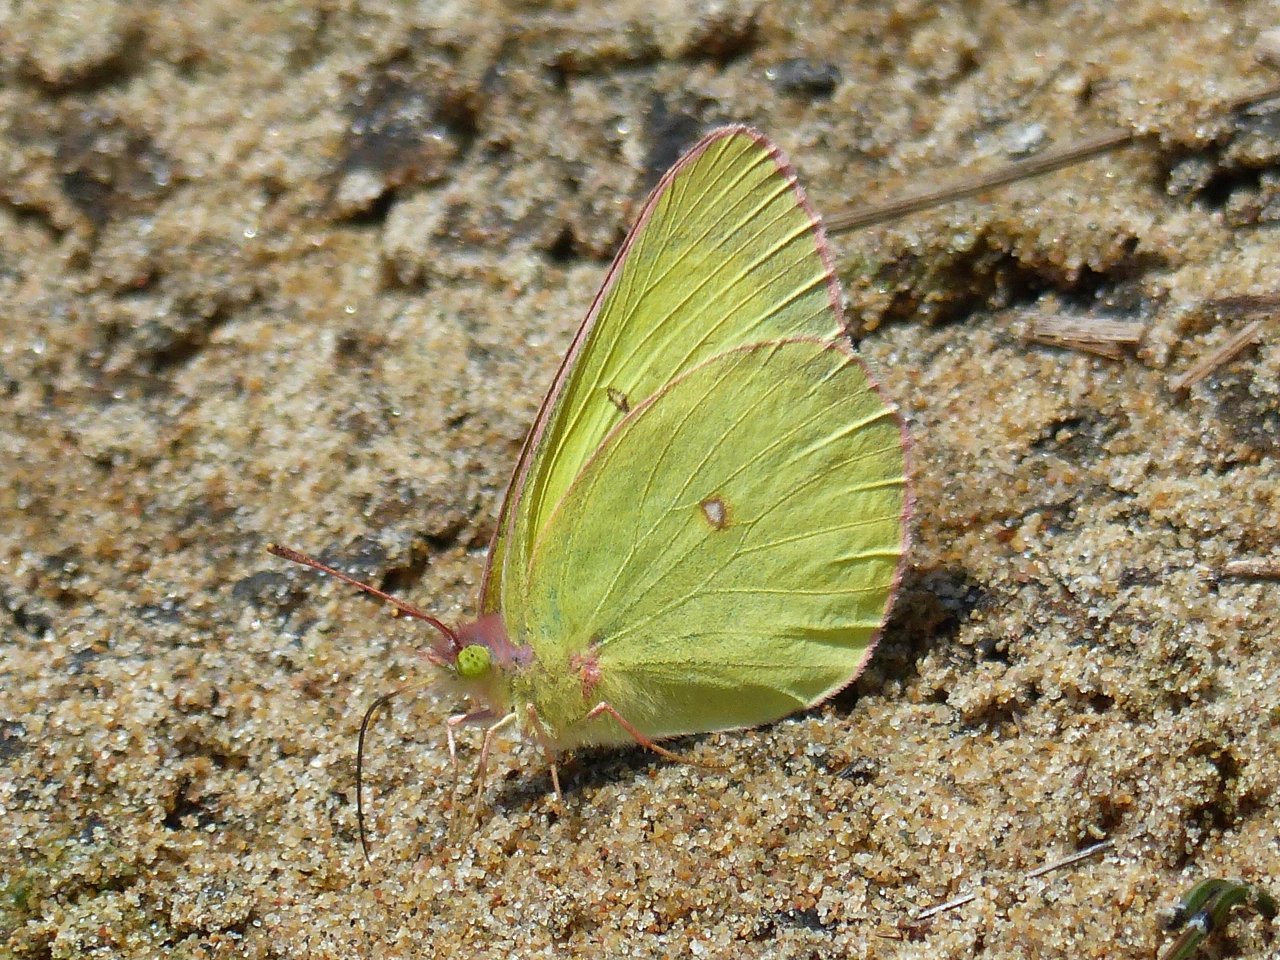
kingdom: Animalia
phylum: Arthropoda
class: Insecta
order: Lepidoptera
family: Pieridae
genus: Colias
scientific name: Colias interior
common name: Pink-edged Sulphur
